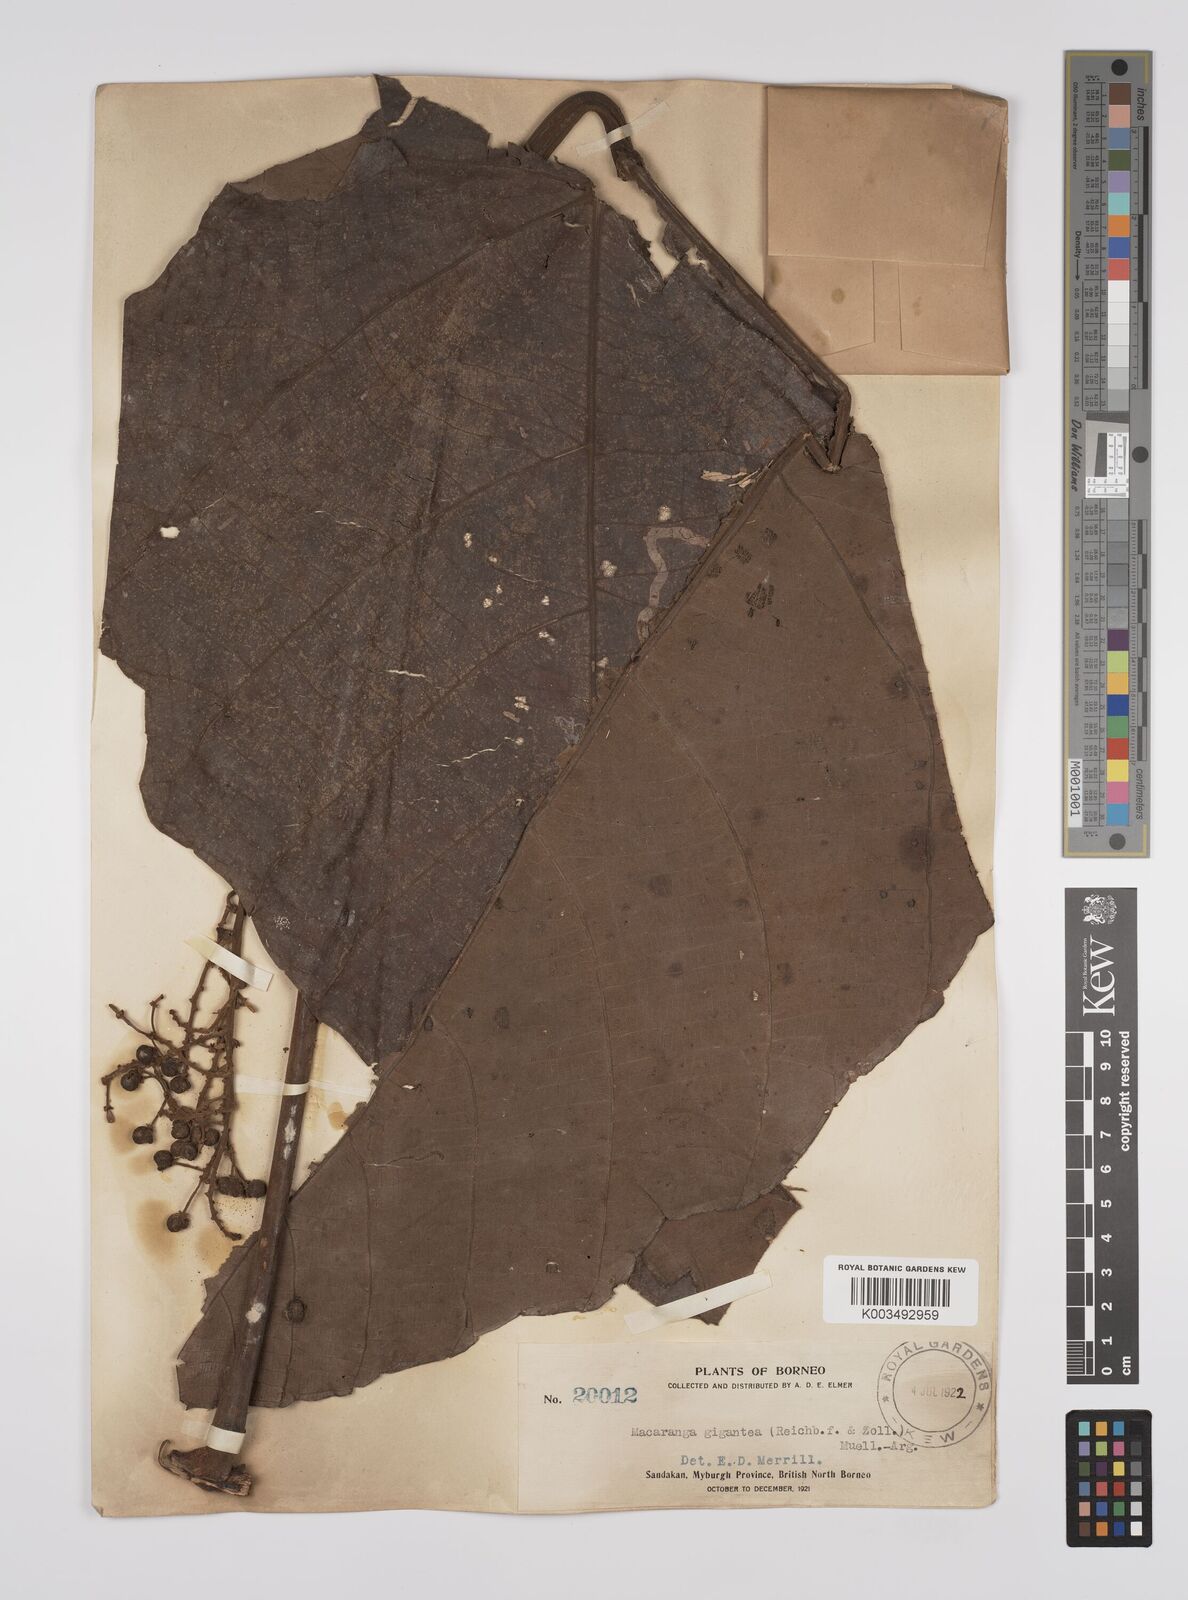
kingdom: Plantae
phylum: Tracheophyta
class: Magnoliopsida
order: Malpighiales
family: Euphorbiaceae
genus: Macaranga
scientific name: Macaranga gigantea
